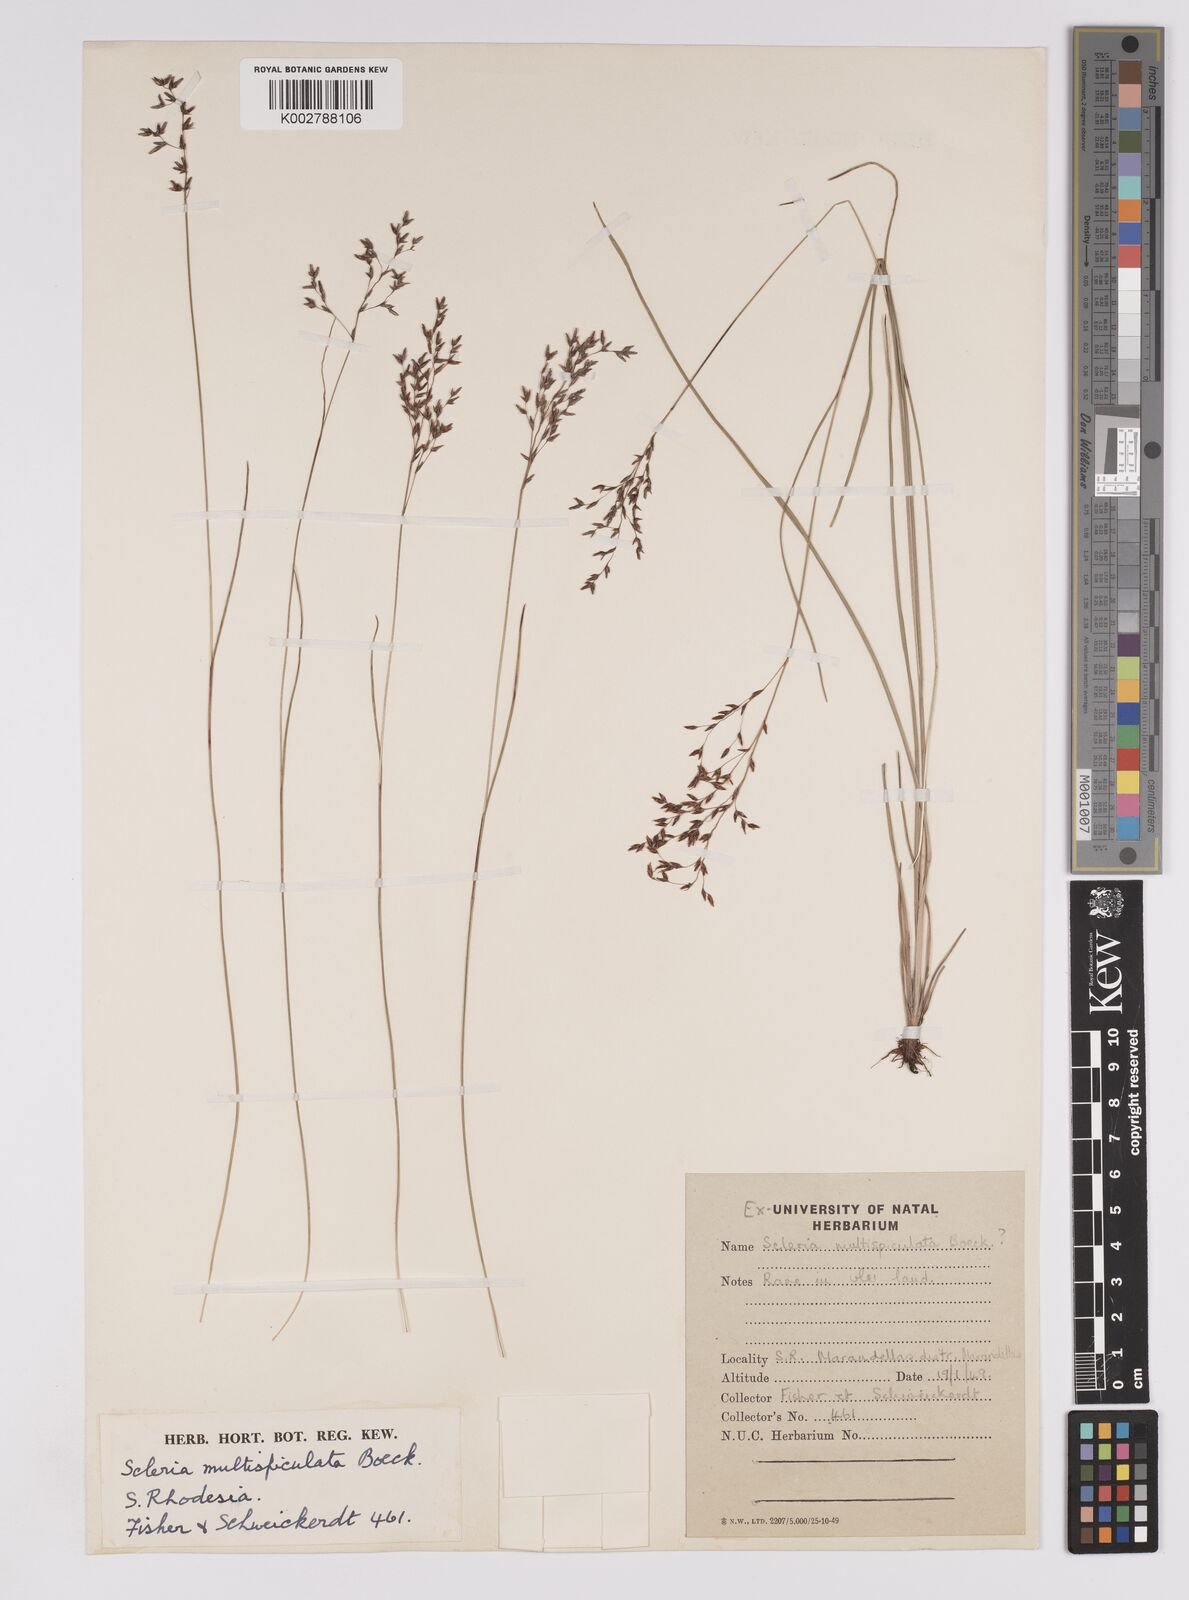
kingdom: Plantae
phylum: Tracheophyta
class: Liliopsida
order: Poales
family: Cyperaceae
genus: Scleria
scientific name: Scleria pooides
